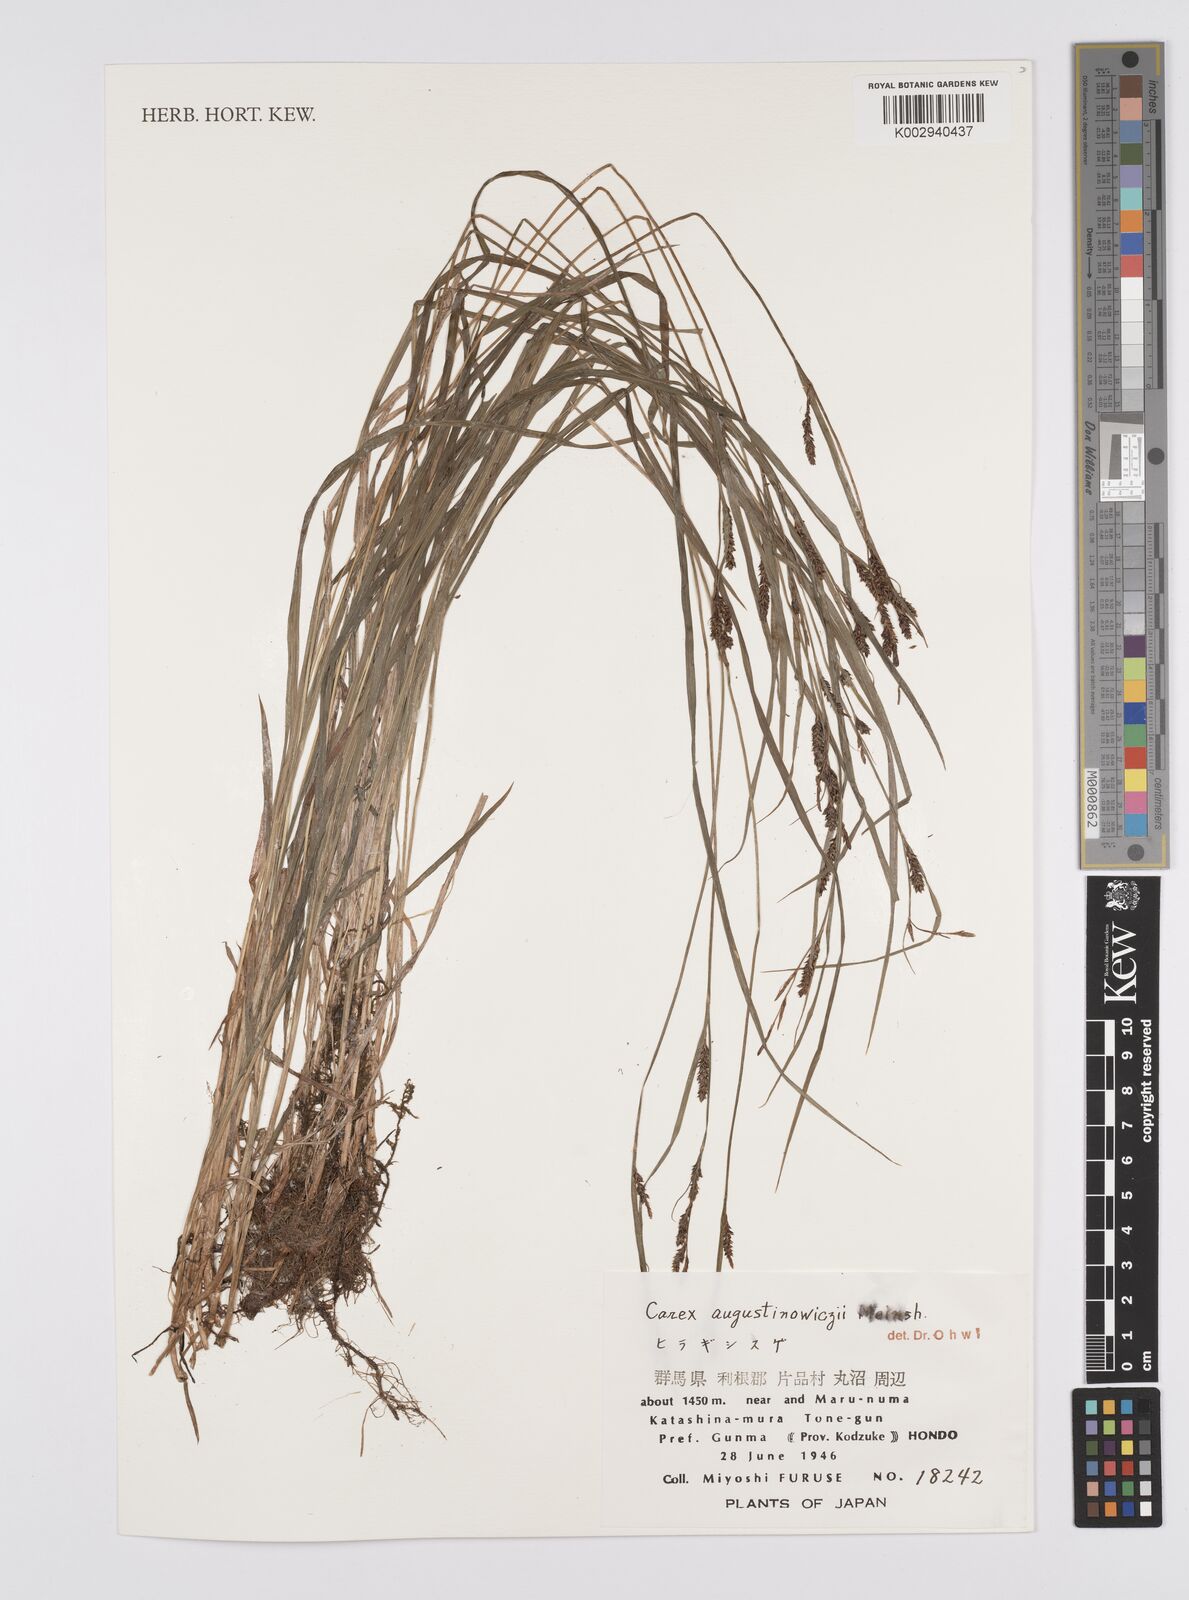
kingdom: Plantae
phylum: Tracheophyta
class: Liliopsida
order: Poales
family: Cyperaceae
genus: Carex
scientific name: Carex augustinowiczii
